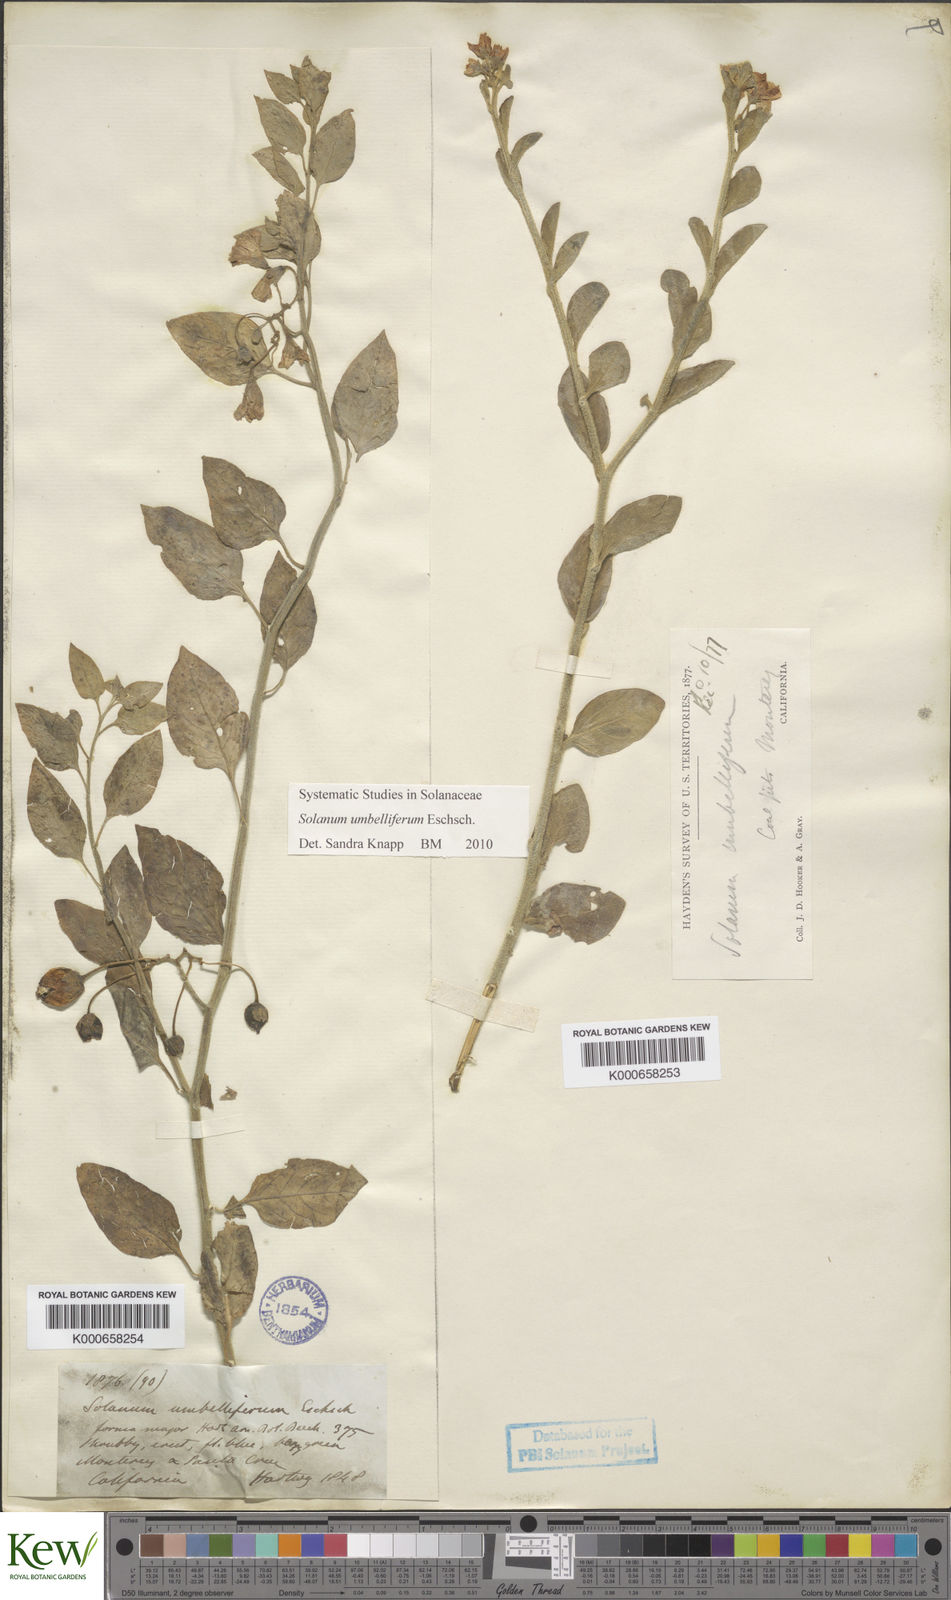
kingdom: Plantae
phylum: Tracheophyta
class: Magnoliopsida
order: Solanales
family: Solanaceae
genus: Solanum
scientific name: Solanum umbelliferum
